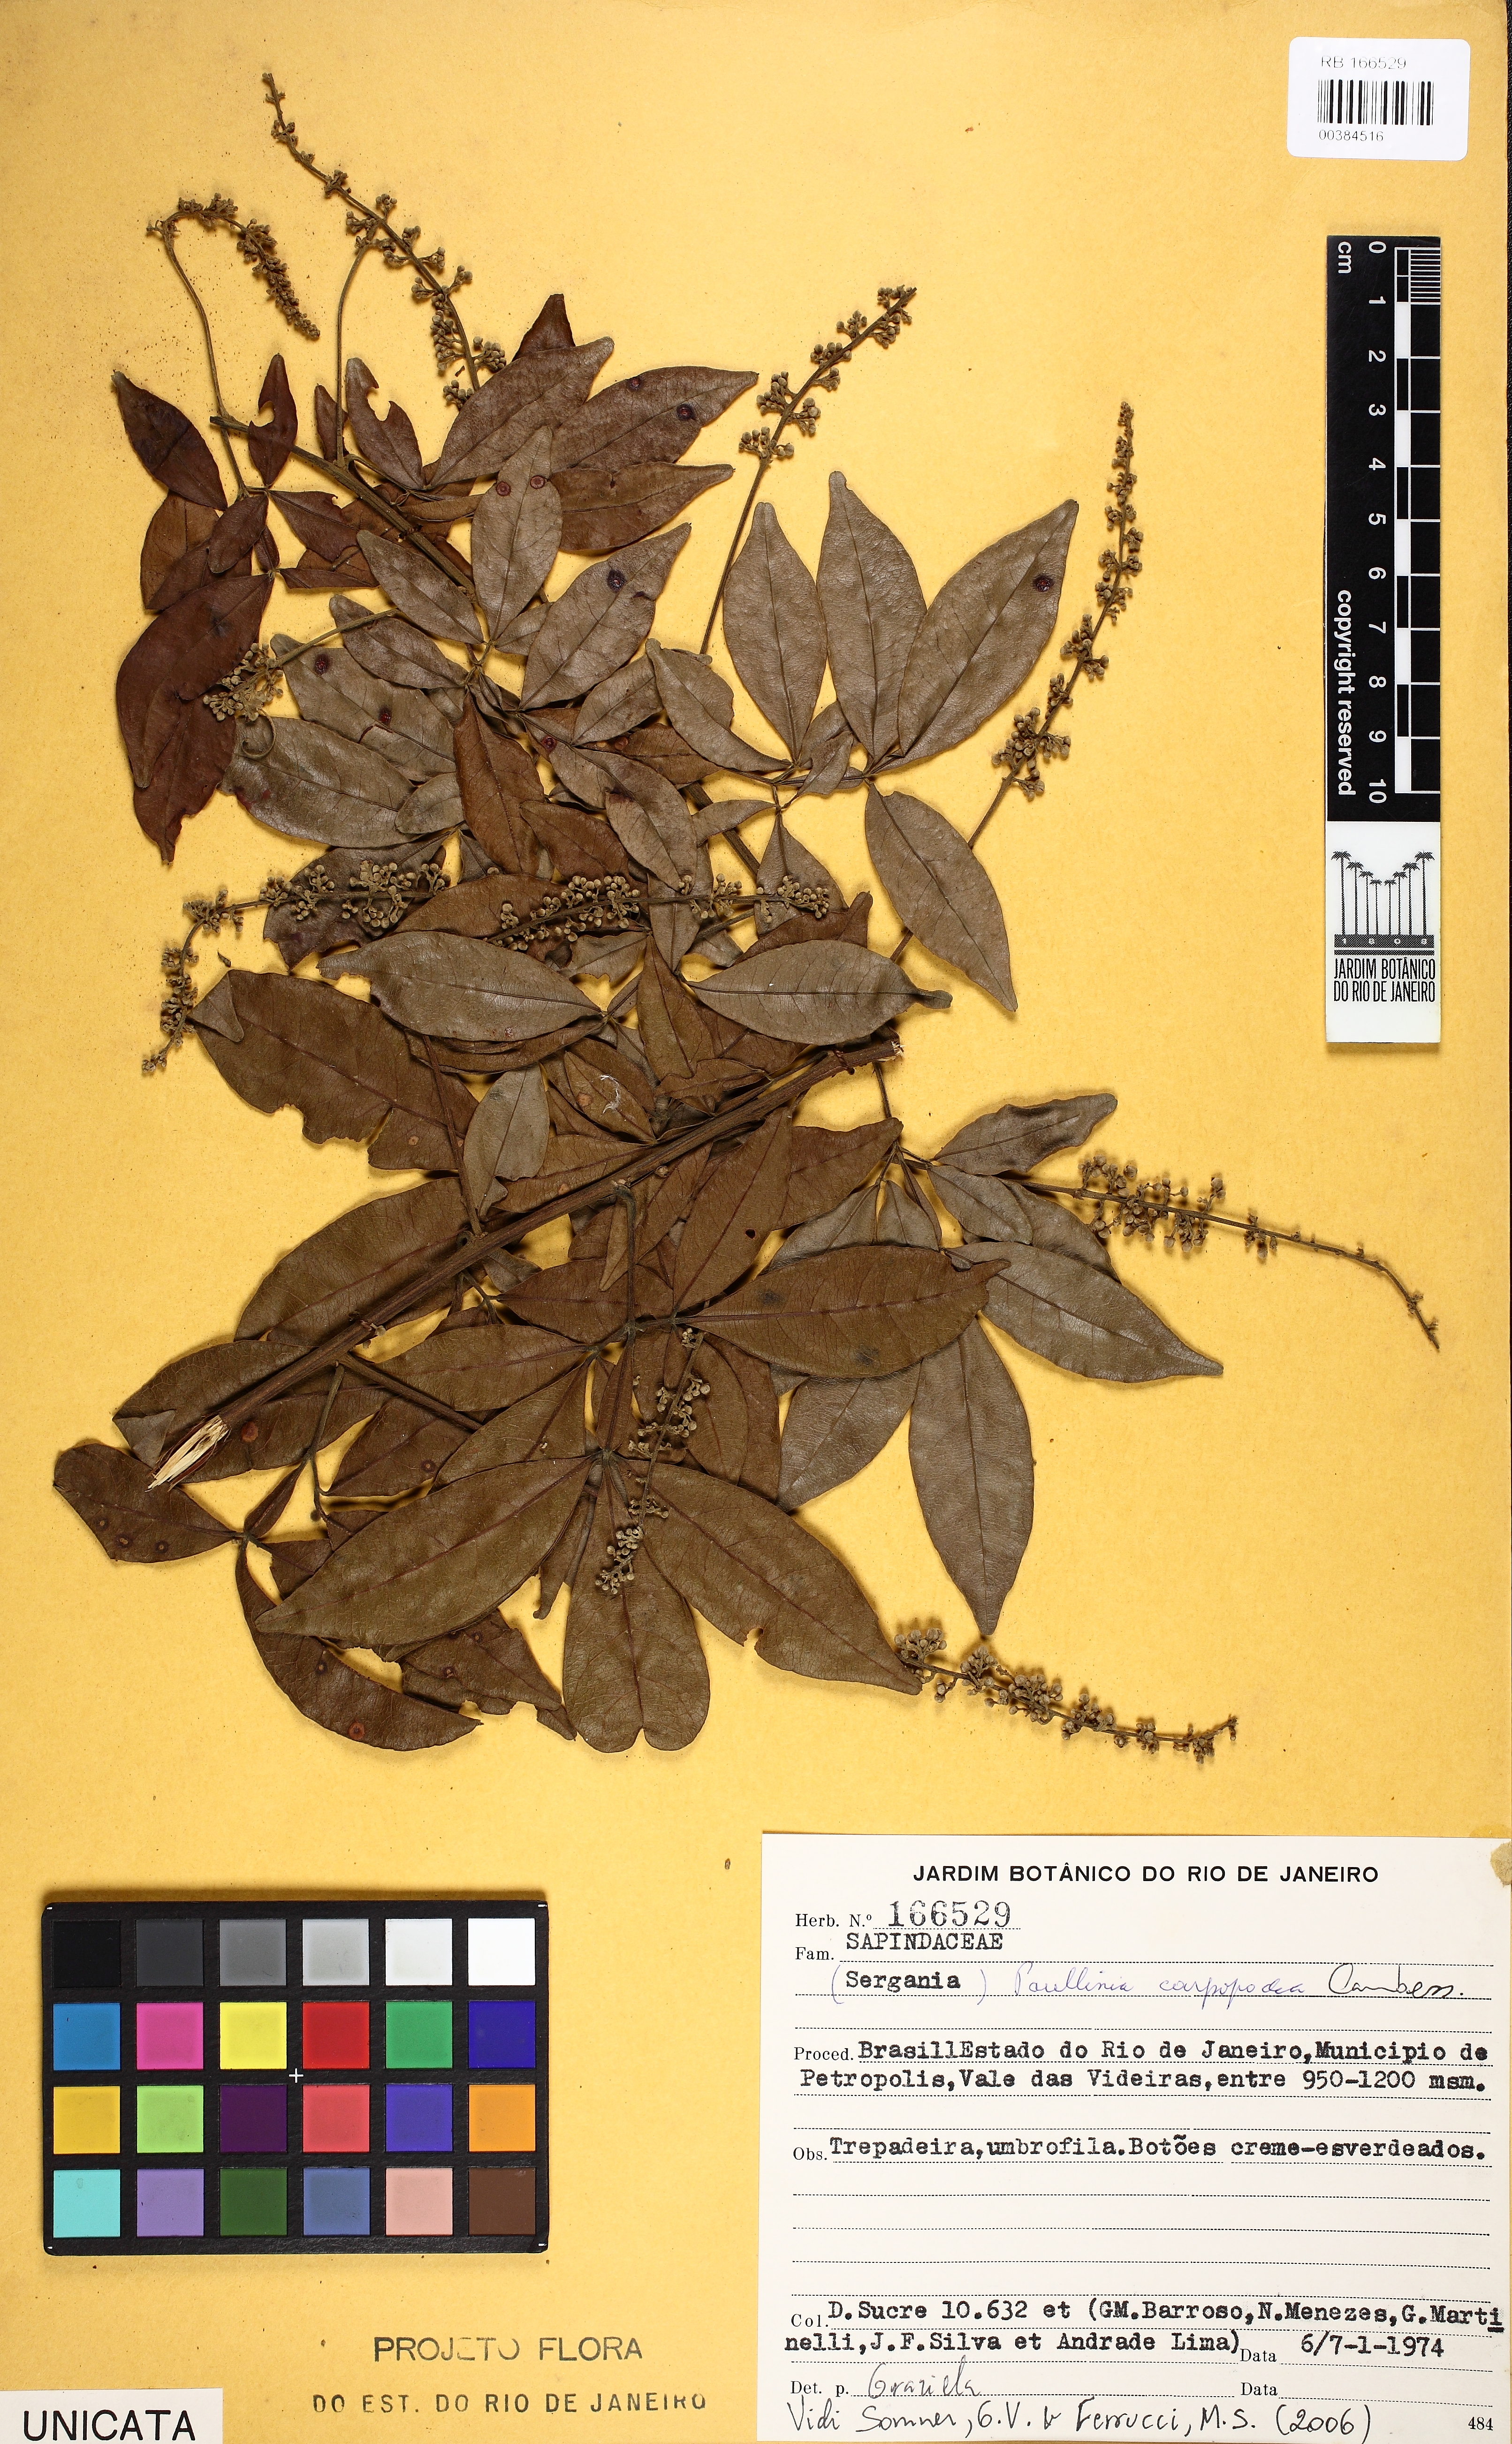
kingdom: Plantae
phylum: Tracheophyta
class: Magnoliopsida
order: Sapindales
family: Sapindaceae
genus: Paullinia
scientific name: Paullinia carpopodea
